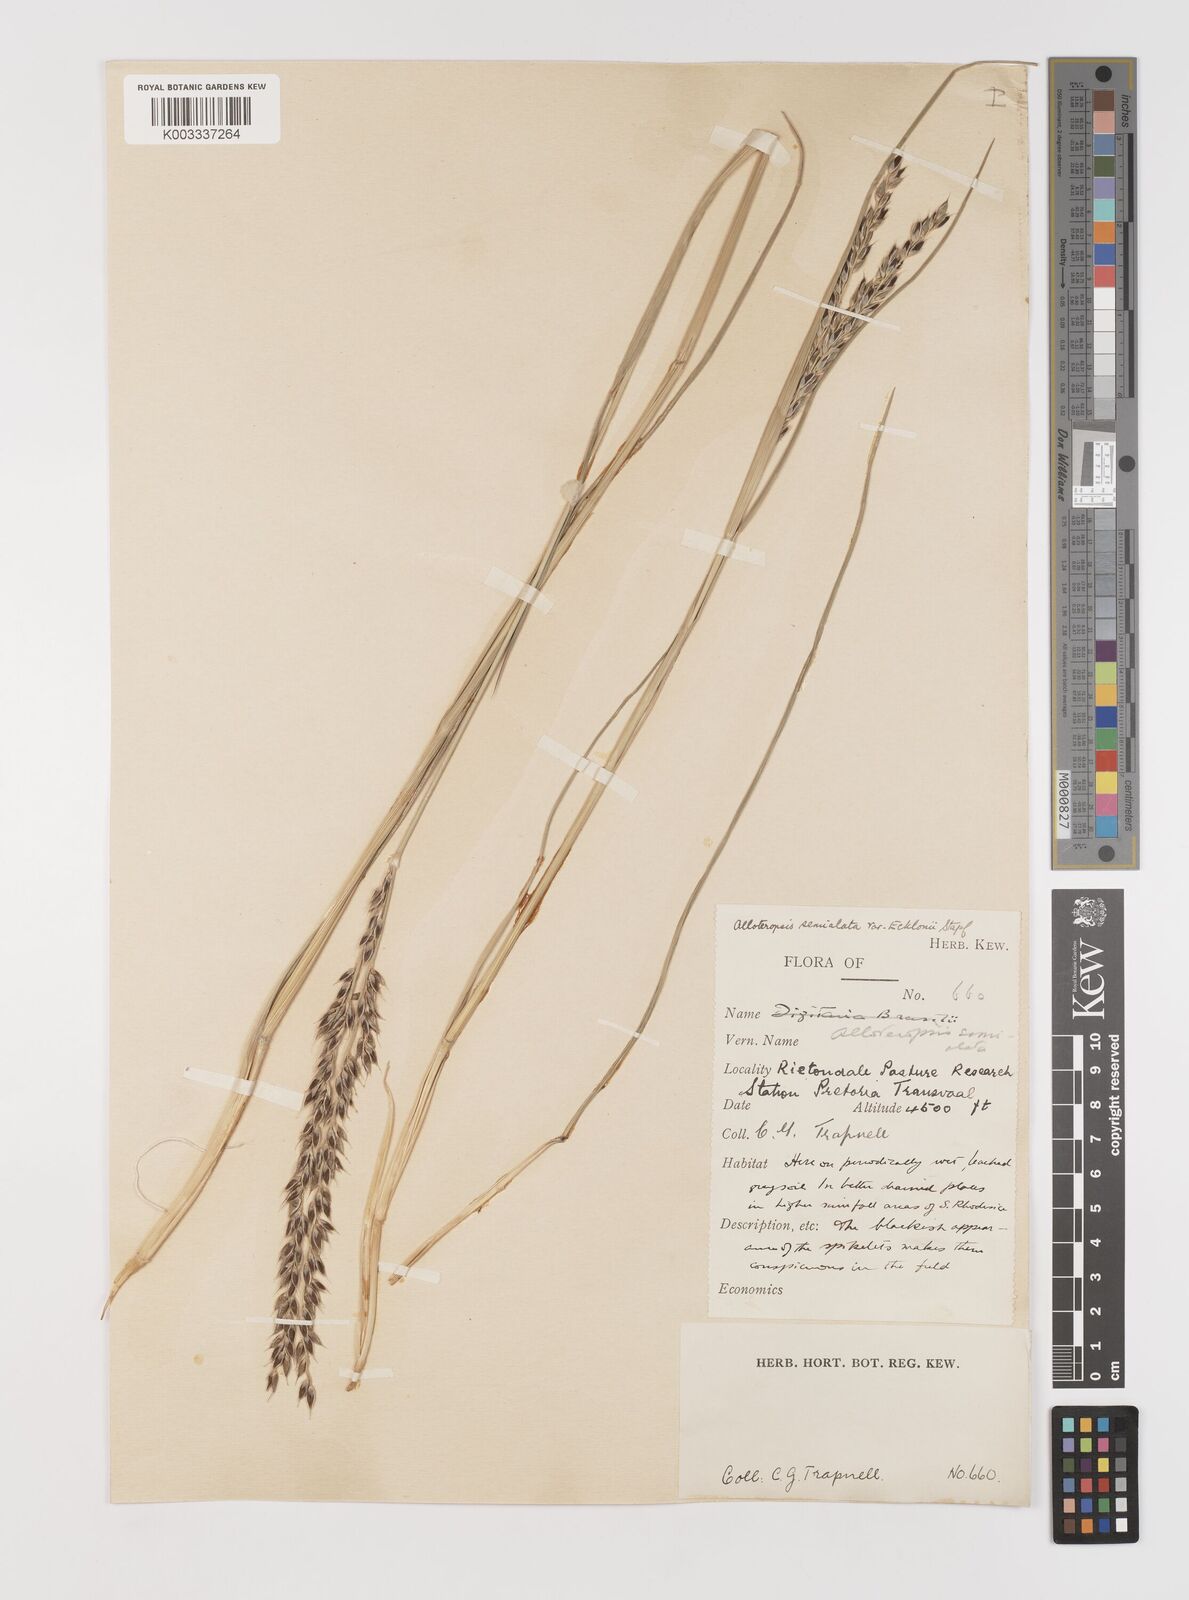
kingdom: Plantae
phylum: Tracheophyta
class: Liliopsida
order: Poales
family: Poaceae
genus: Alloteropsis
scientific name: Alloteropsis semialata
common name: Cockatoo grass
